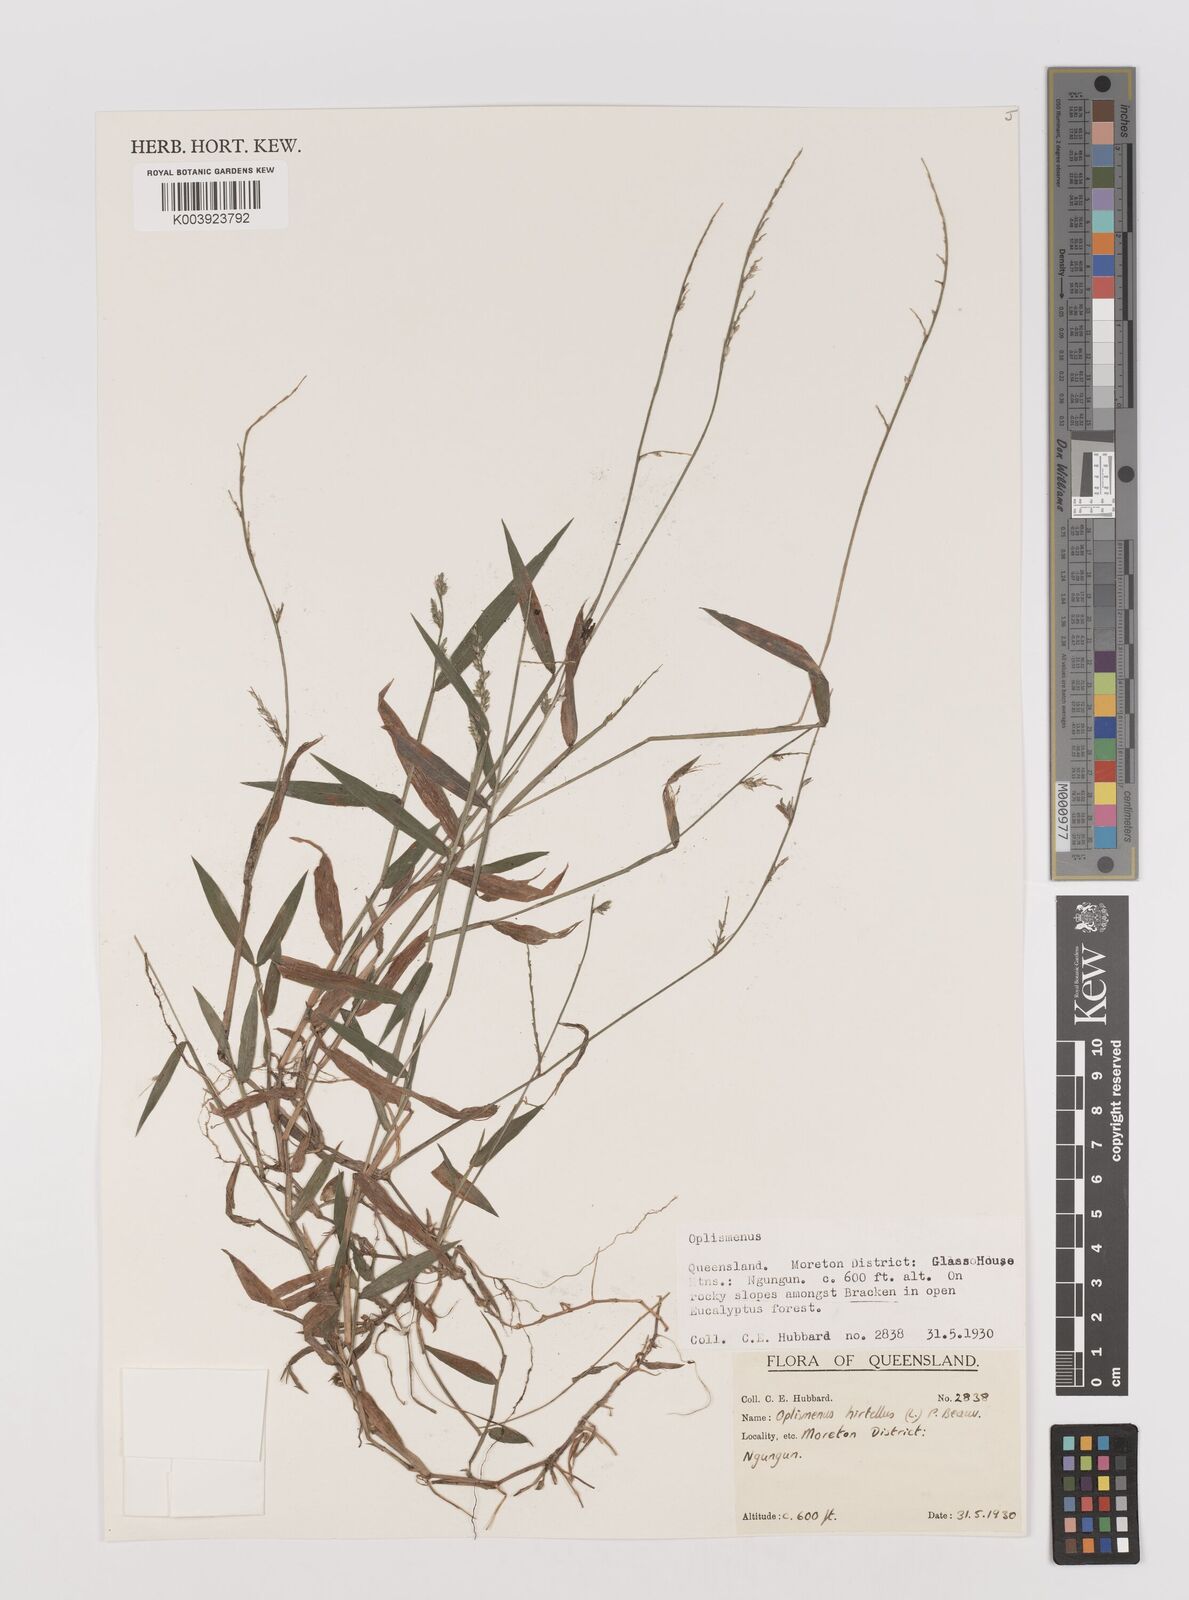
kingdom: Plantae
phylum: Tracheophyta
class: Liliopsida
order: Poales
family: Poaceae
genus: Oplismenus
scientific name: Oplismenus hirtellus
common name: Basketgrass
